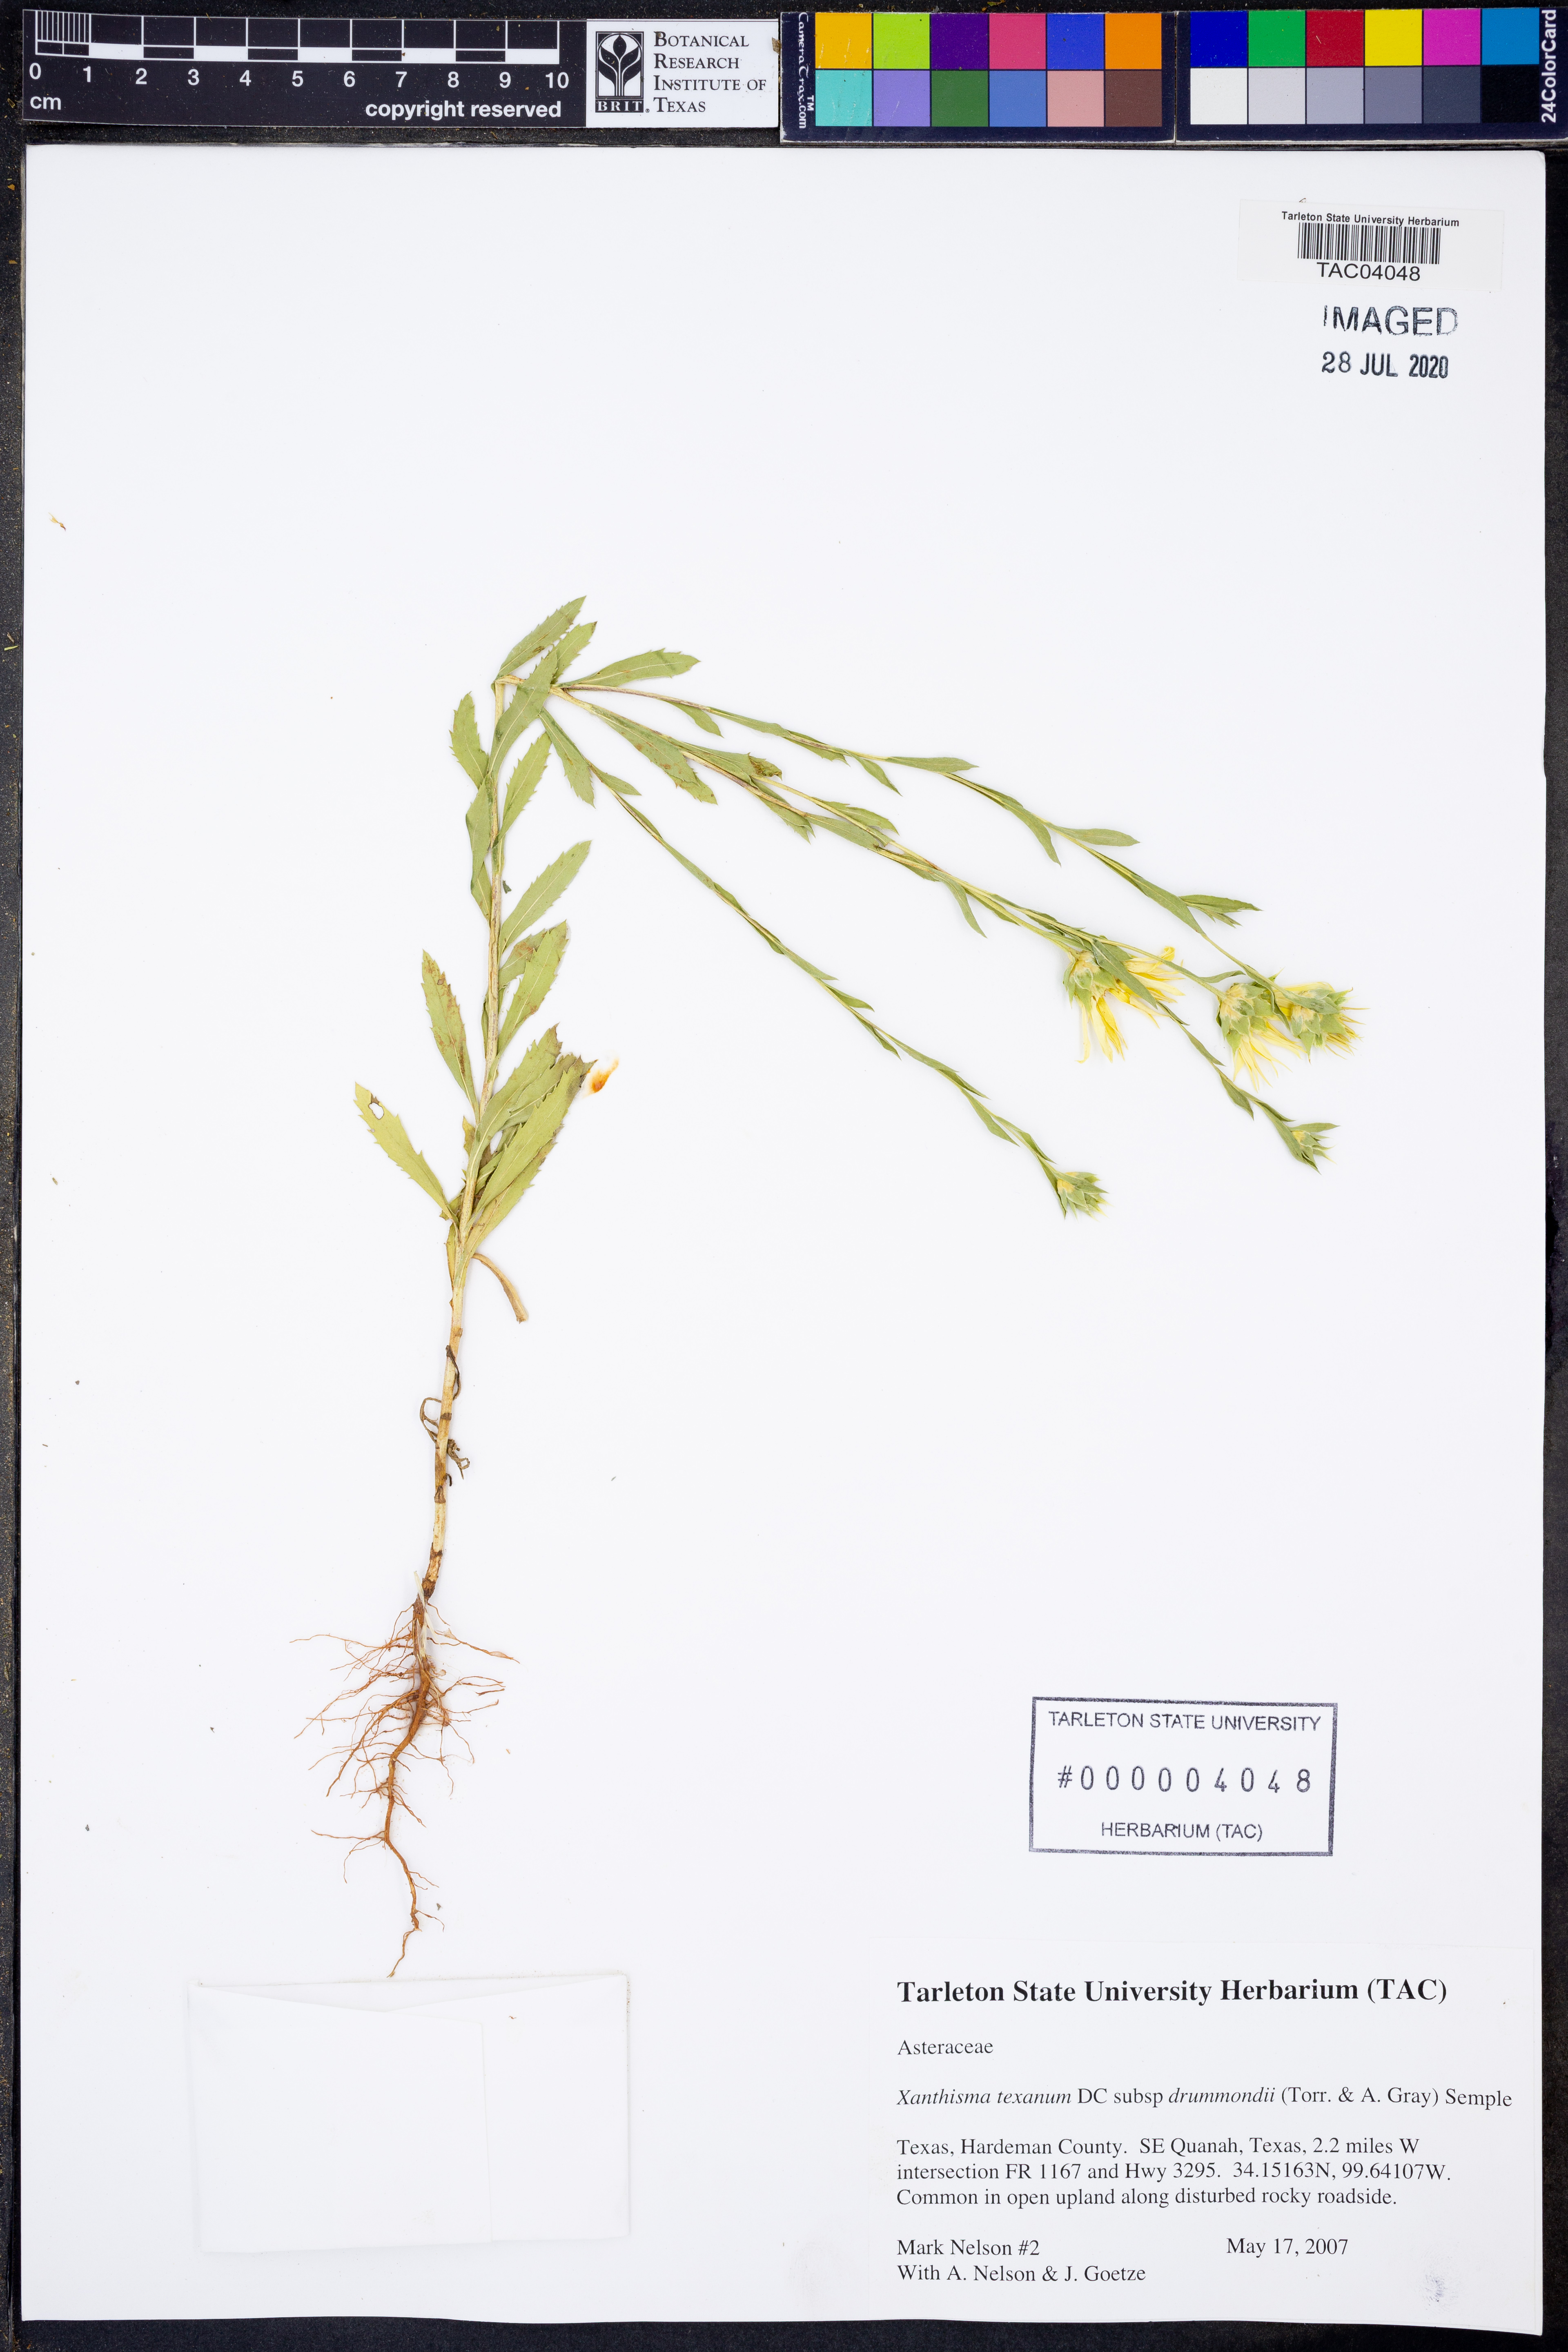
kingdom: Plantae
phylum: Tracheophyta
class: Magnoliopsida
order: Asterales
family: Asteraceae
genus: Xanthisma
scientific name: Xanthisma texanum
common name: Texas sleepy daisy
